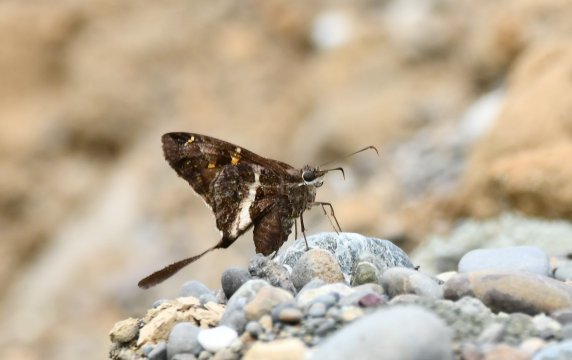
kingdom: Animalia
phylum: Arthropoda
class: Insecta
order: Lepidoptera
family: Hesperiidae
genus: Chioides
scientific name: Chioides catillus
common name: Blurry-striped Longtail
